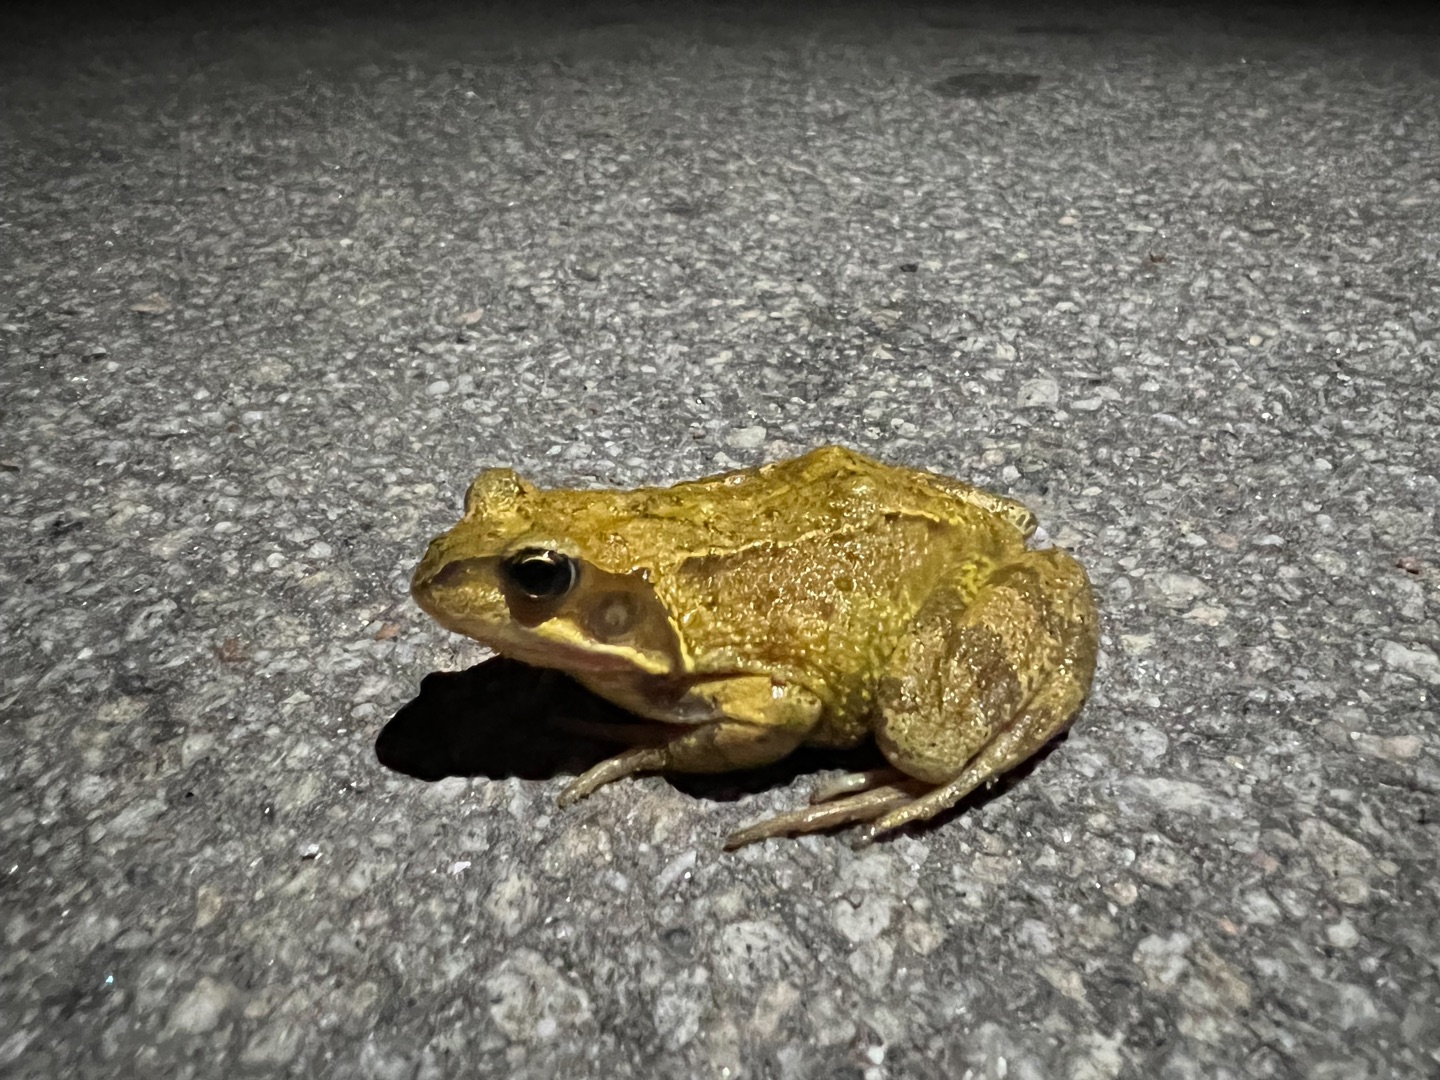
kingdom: Animalia
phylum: Chordata
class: Amphibia
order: Anura
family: Ranidae
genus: Rana
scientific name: Rana temporaria
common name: Butsnudet frø
